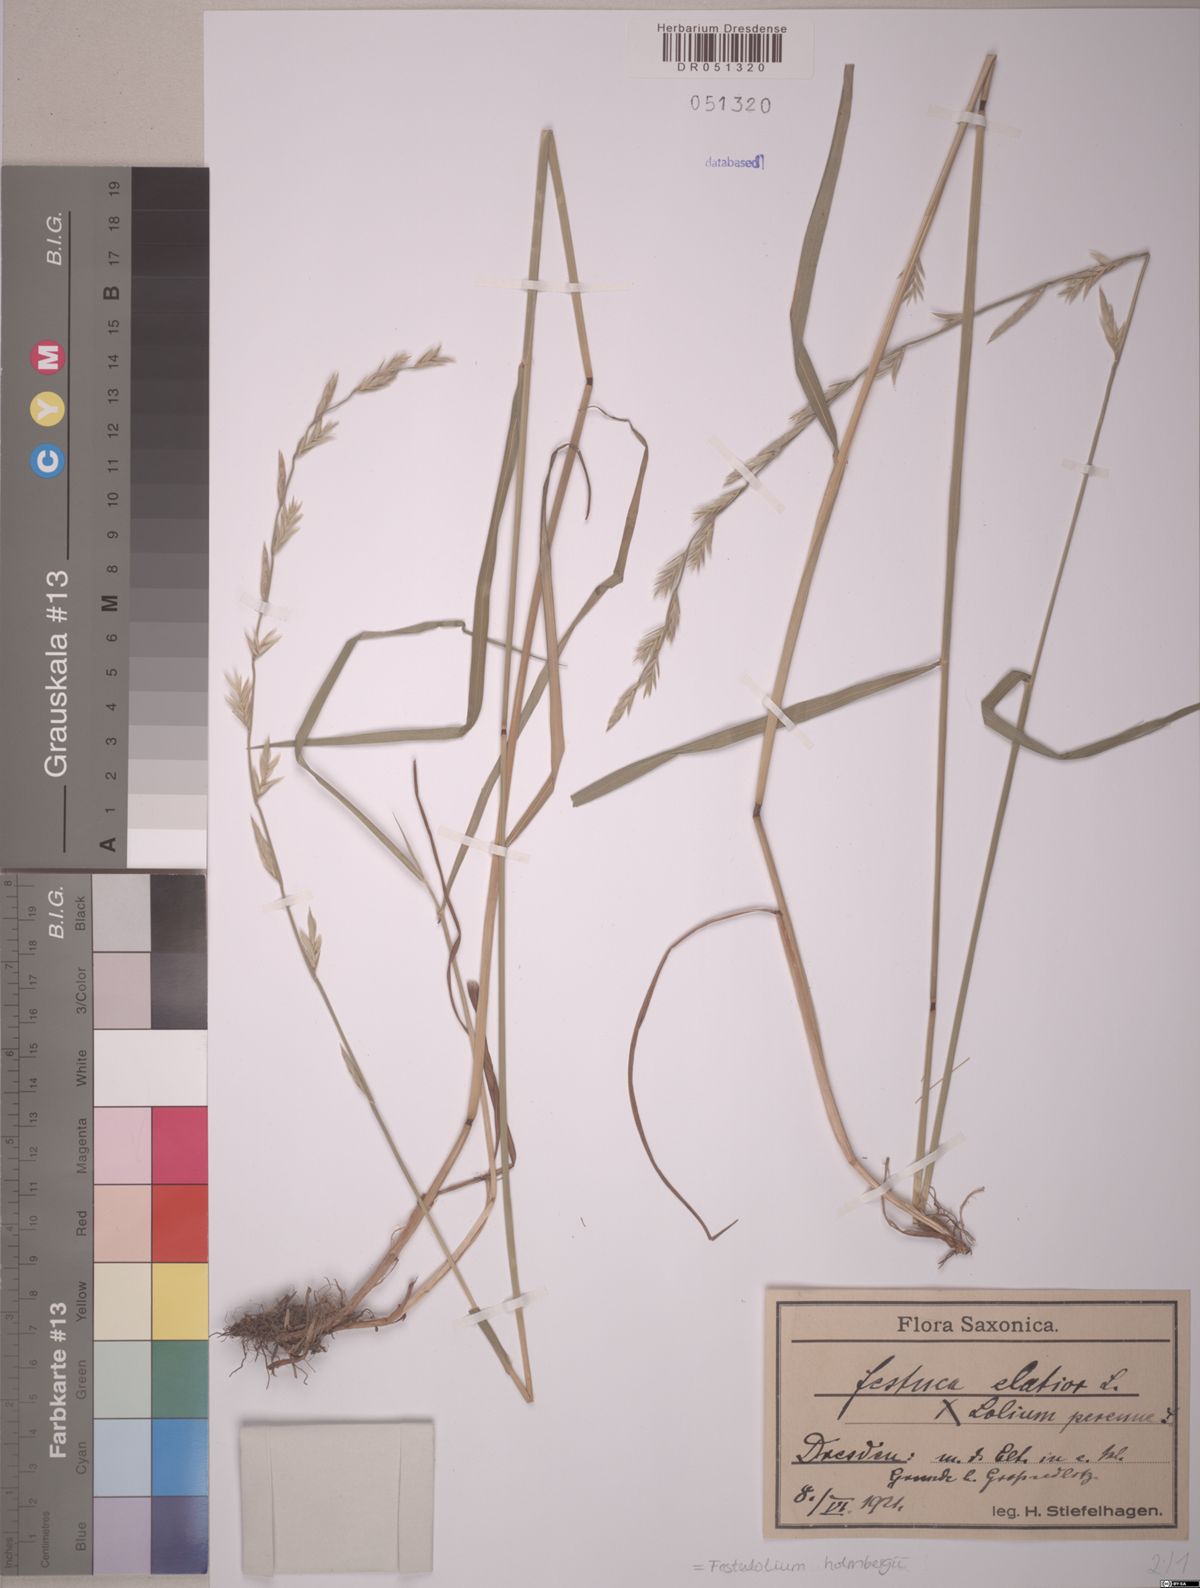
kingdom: Plantae
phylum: Tracheophyta
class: Liliopsida
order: Poales
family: Poaceae
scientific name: Poaceae
